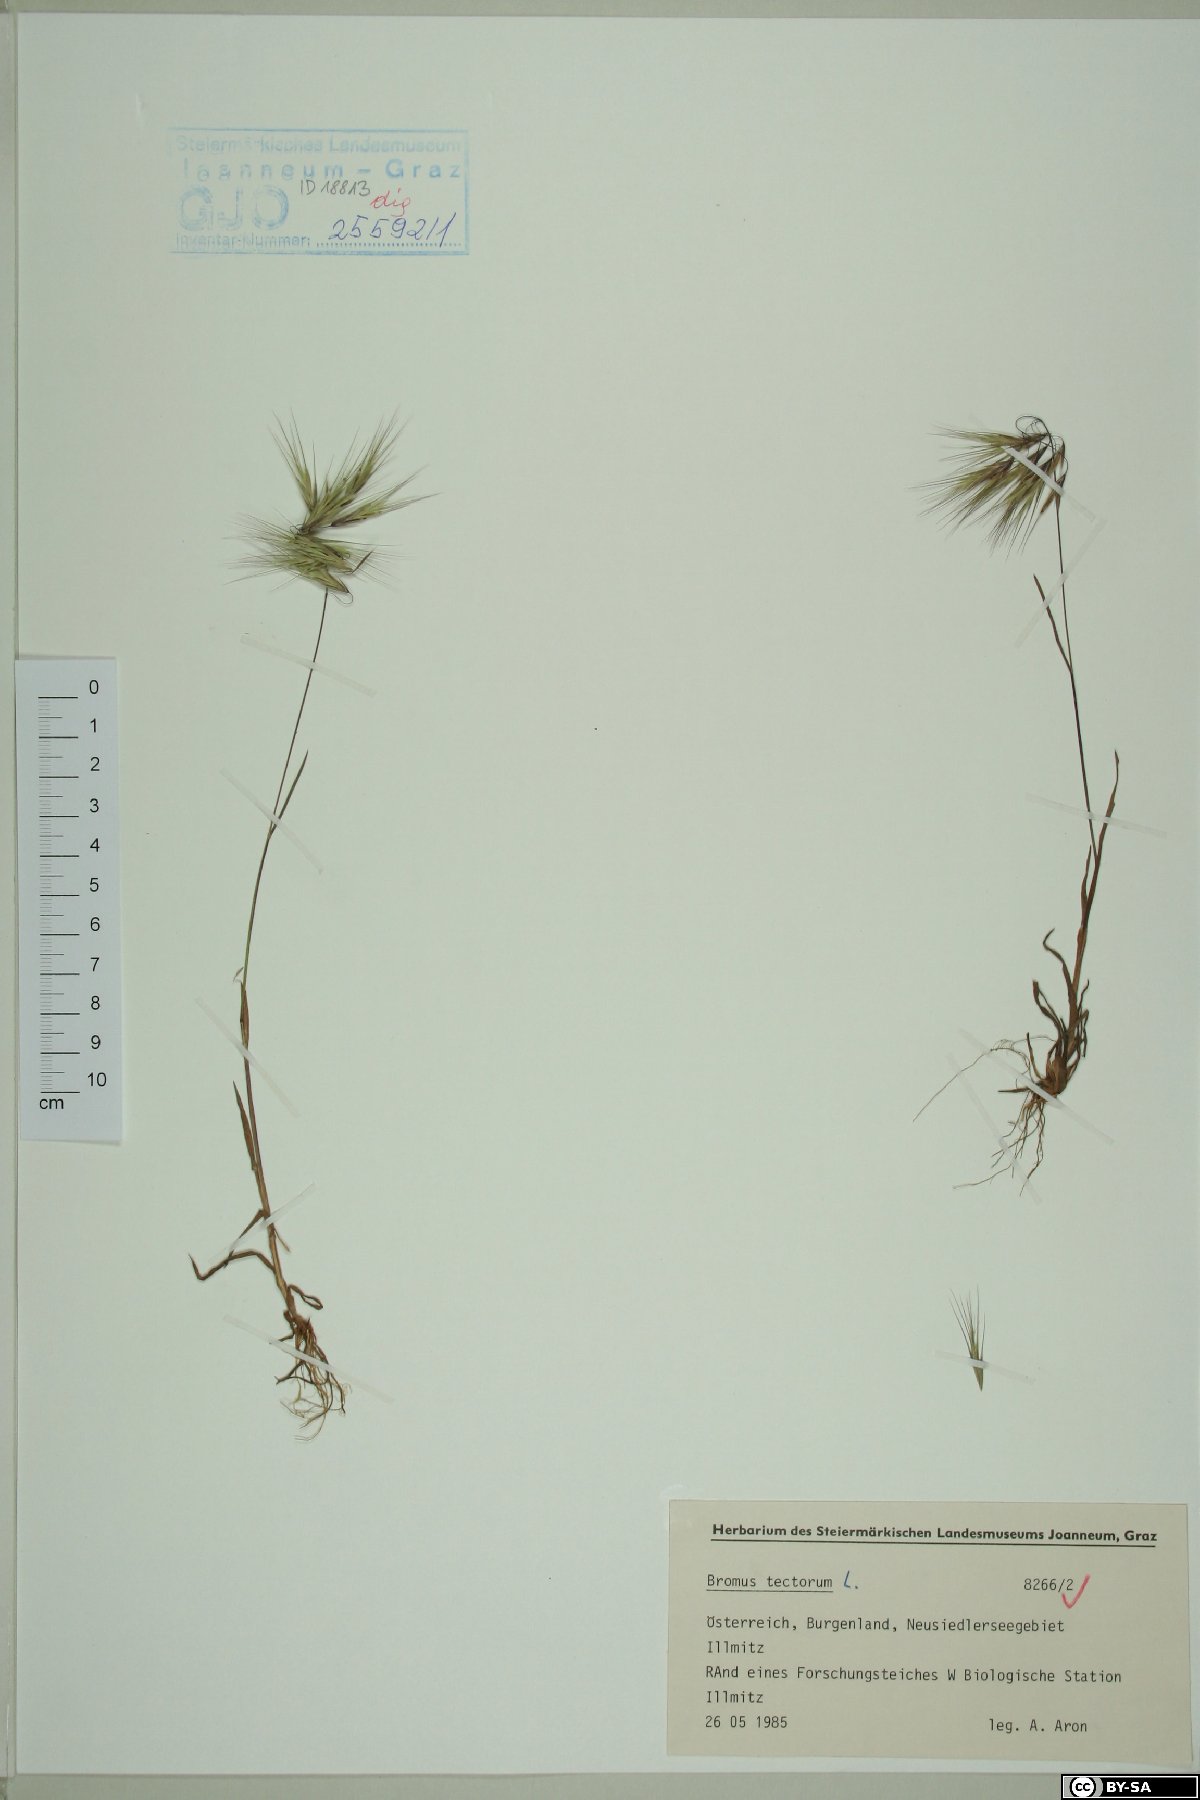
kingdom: Plantae
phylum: Tracheophyta
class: Liliopsida
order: Poales
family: Poaceae
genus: Bromus
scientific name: Bromus tectorum
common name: Cheatgrass
